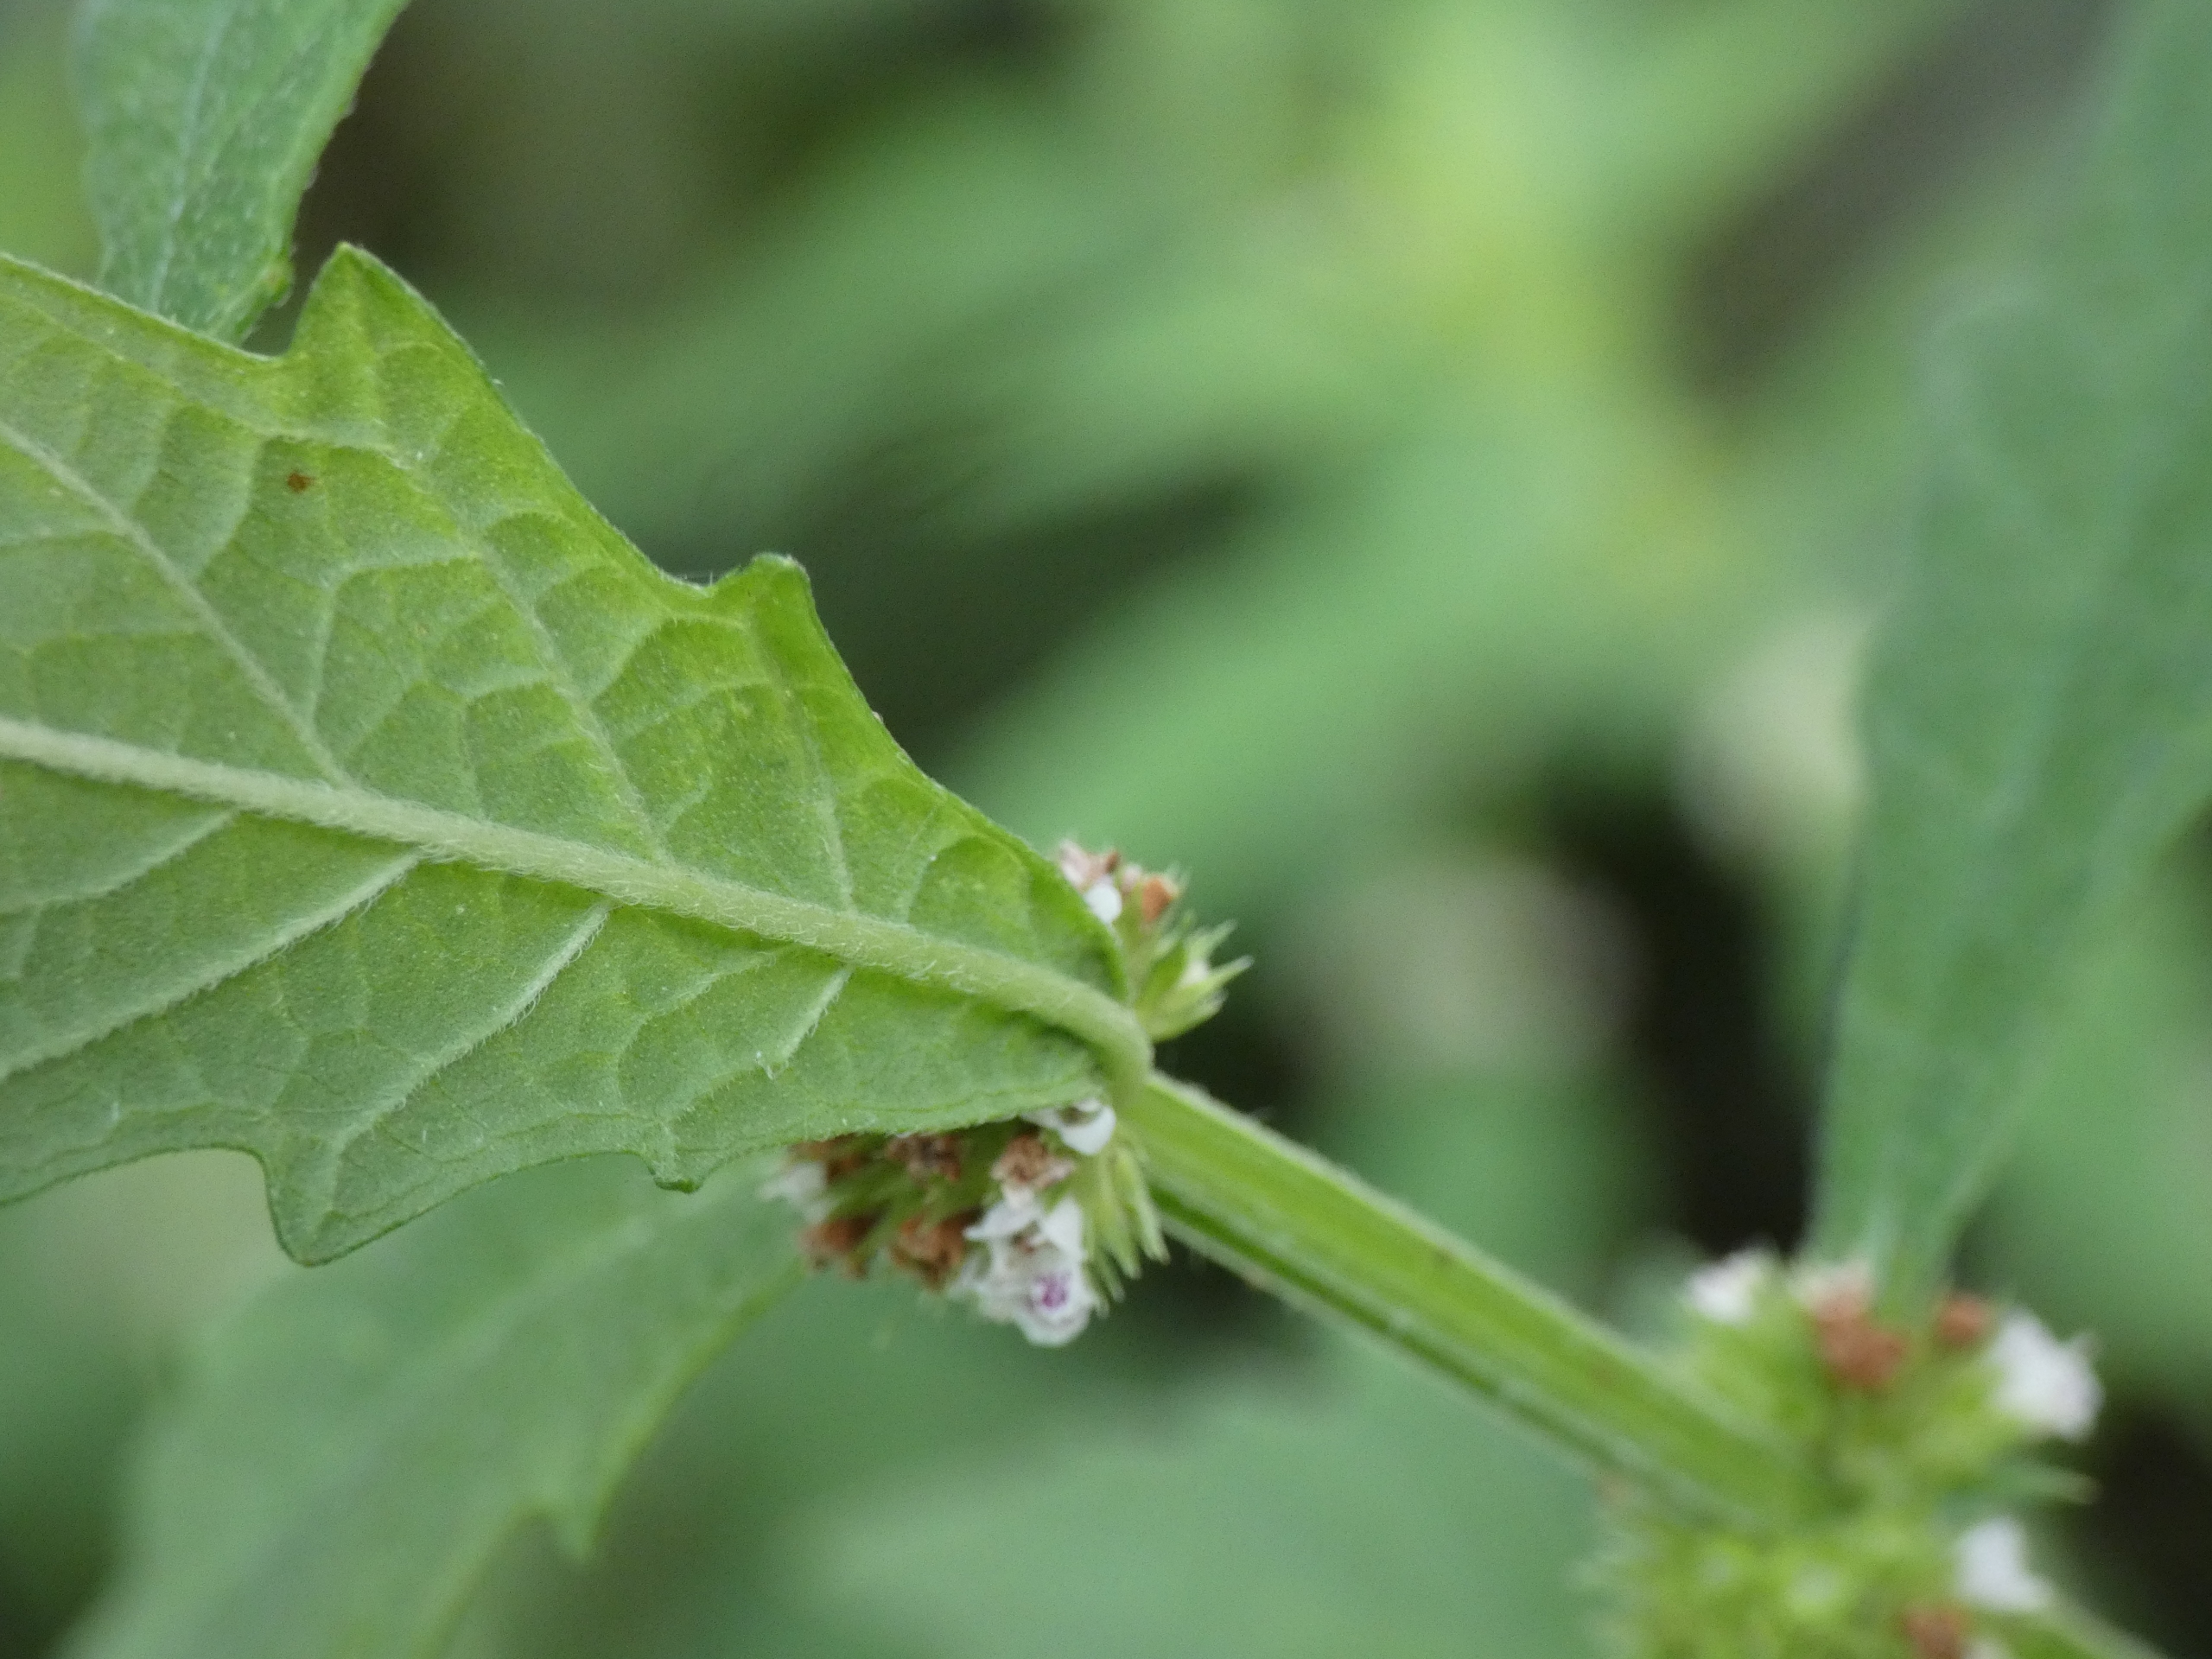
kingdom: Plantae
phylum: Tracheophyta
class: Magnoliopsida
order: Lamiales
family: Lamiaceae
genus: Lycopus
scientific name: Lycopus europaeus
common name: Sværtevæld
